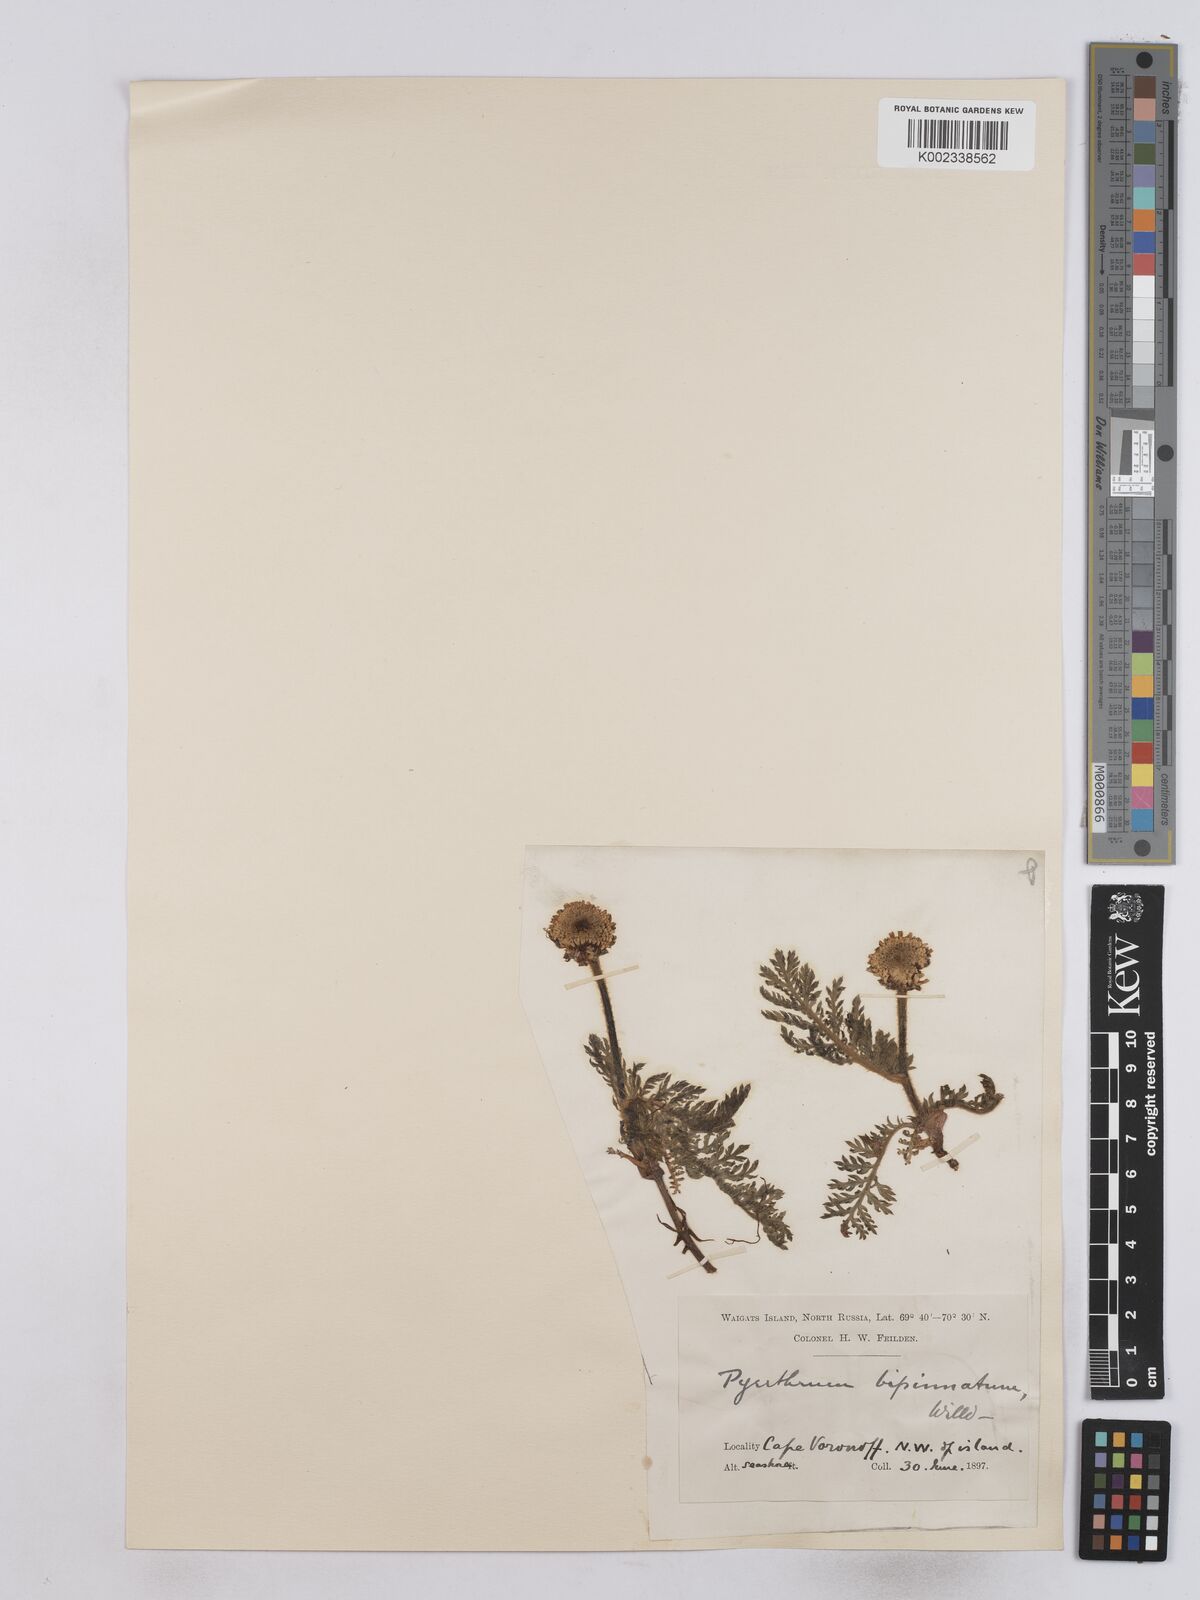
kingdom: Plantae
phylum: Tracheophyta
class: Magnoliopsida
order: Asterales
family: Asteraceae
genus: Tanacetum
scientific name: Tanacetum bipinnatum
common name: Dwarf tansy
